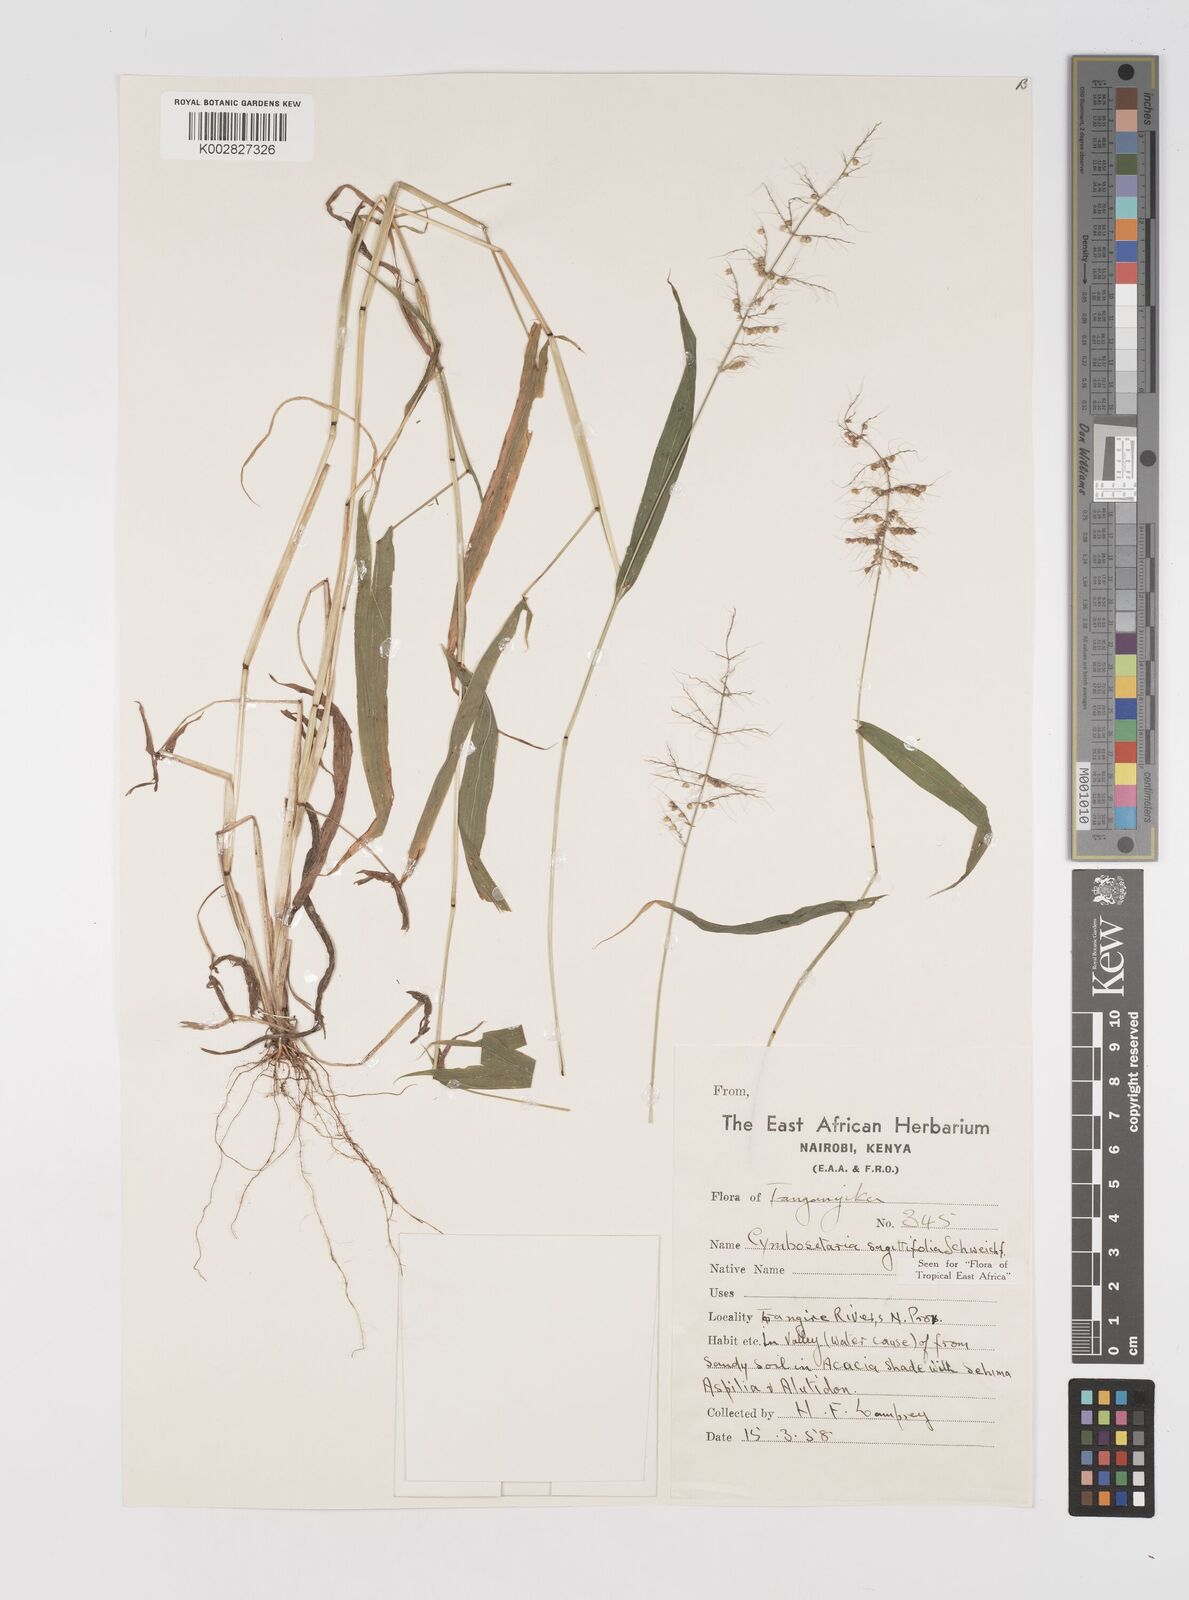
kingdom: Plantae
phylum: Tracheophyta
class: Liliopsida
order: Poales
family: Poaceae
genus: Setaria
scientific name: Setaria sagittifolia
